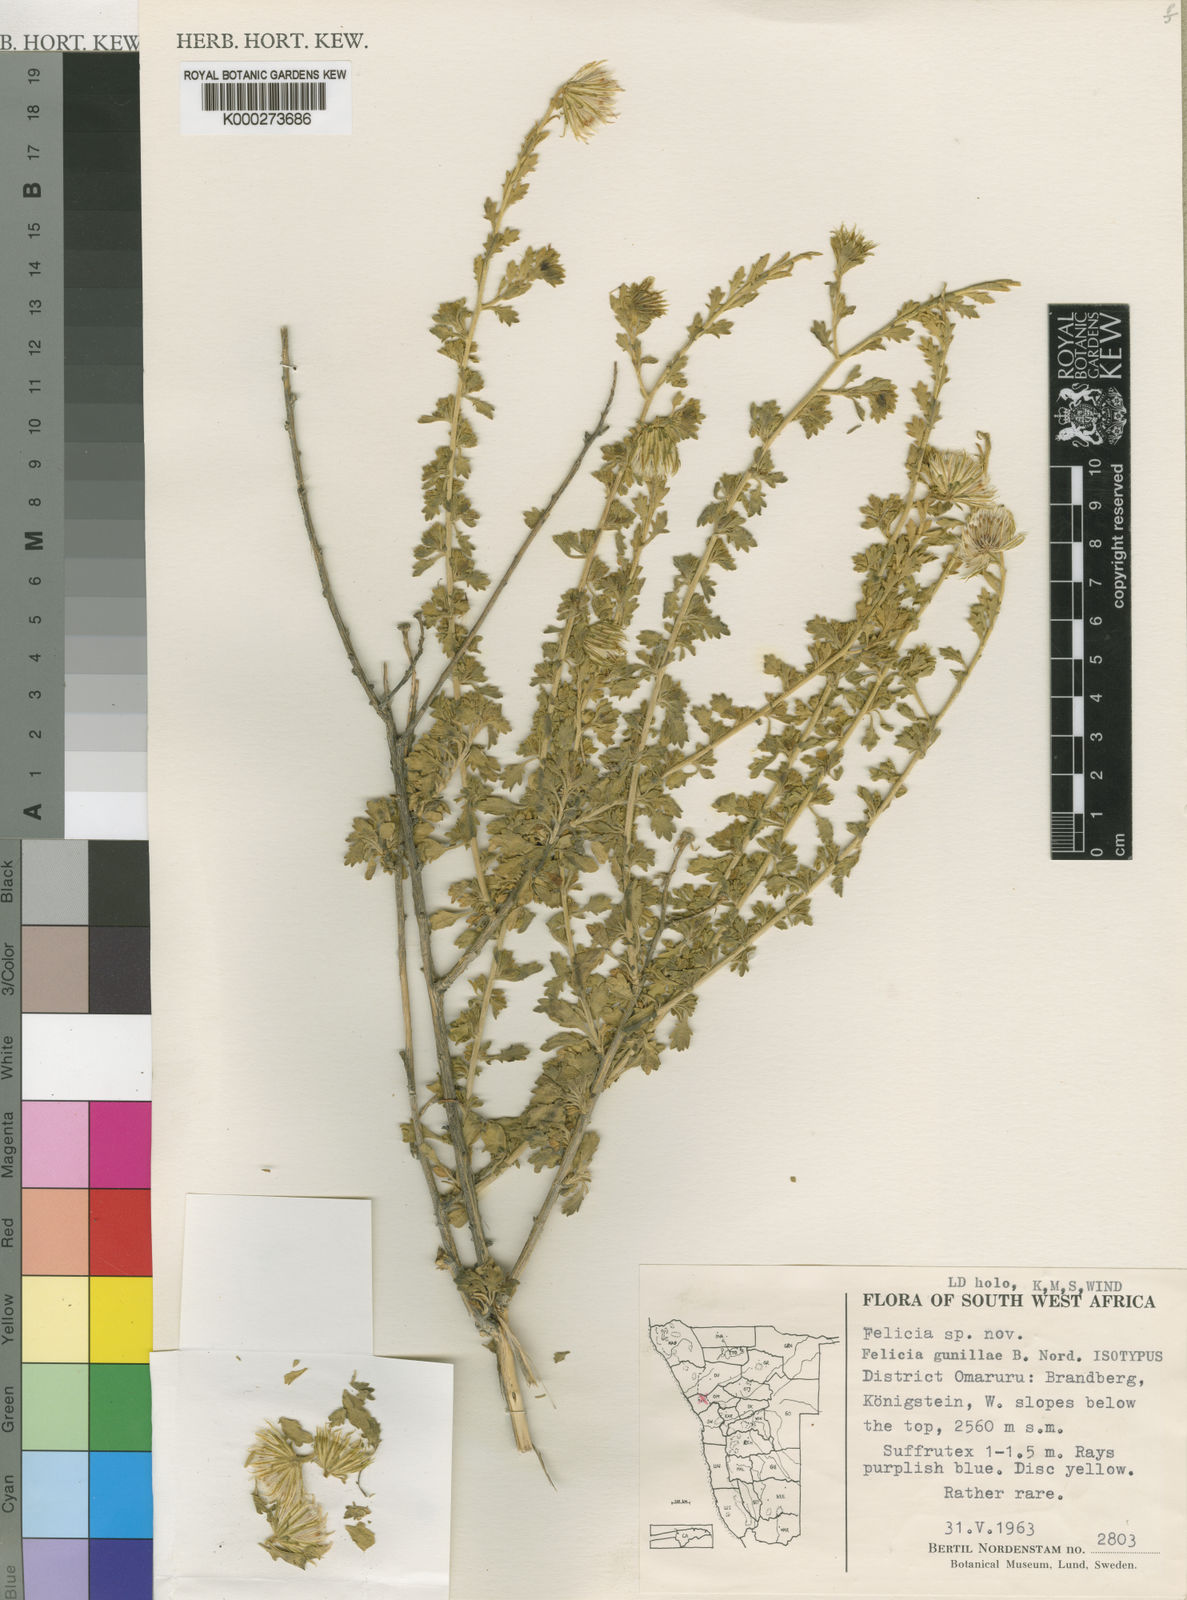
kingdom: Plantae
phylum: Tracheophyta
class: Magnoliopsida
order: Asterales
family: Asteraceae
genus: Felicia
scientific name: Felicia gunillae
